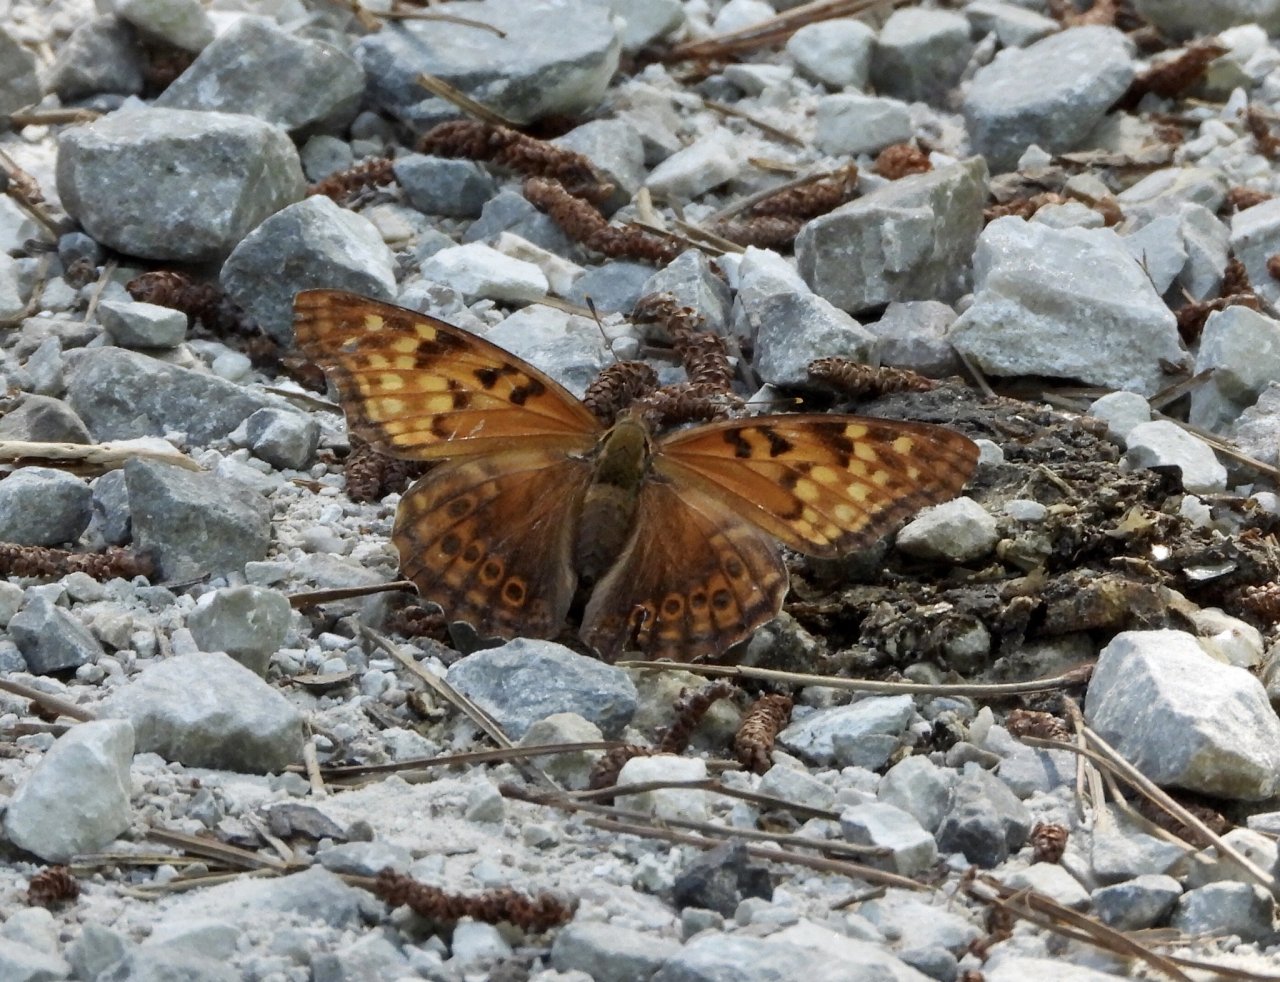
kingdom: Animalia
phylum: Arthropoda
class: Insecta
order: Lepidoptera
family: Nymphalidae
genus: Asterocampa
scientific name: Asterocampa clyton
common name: Tawny Emperor
